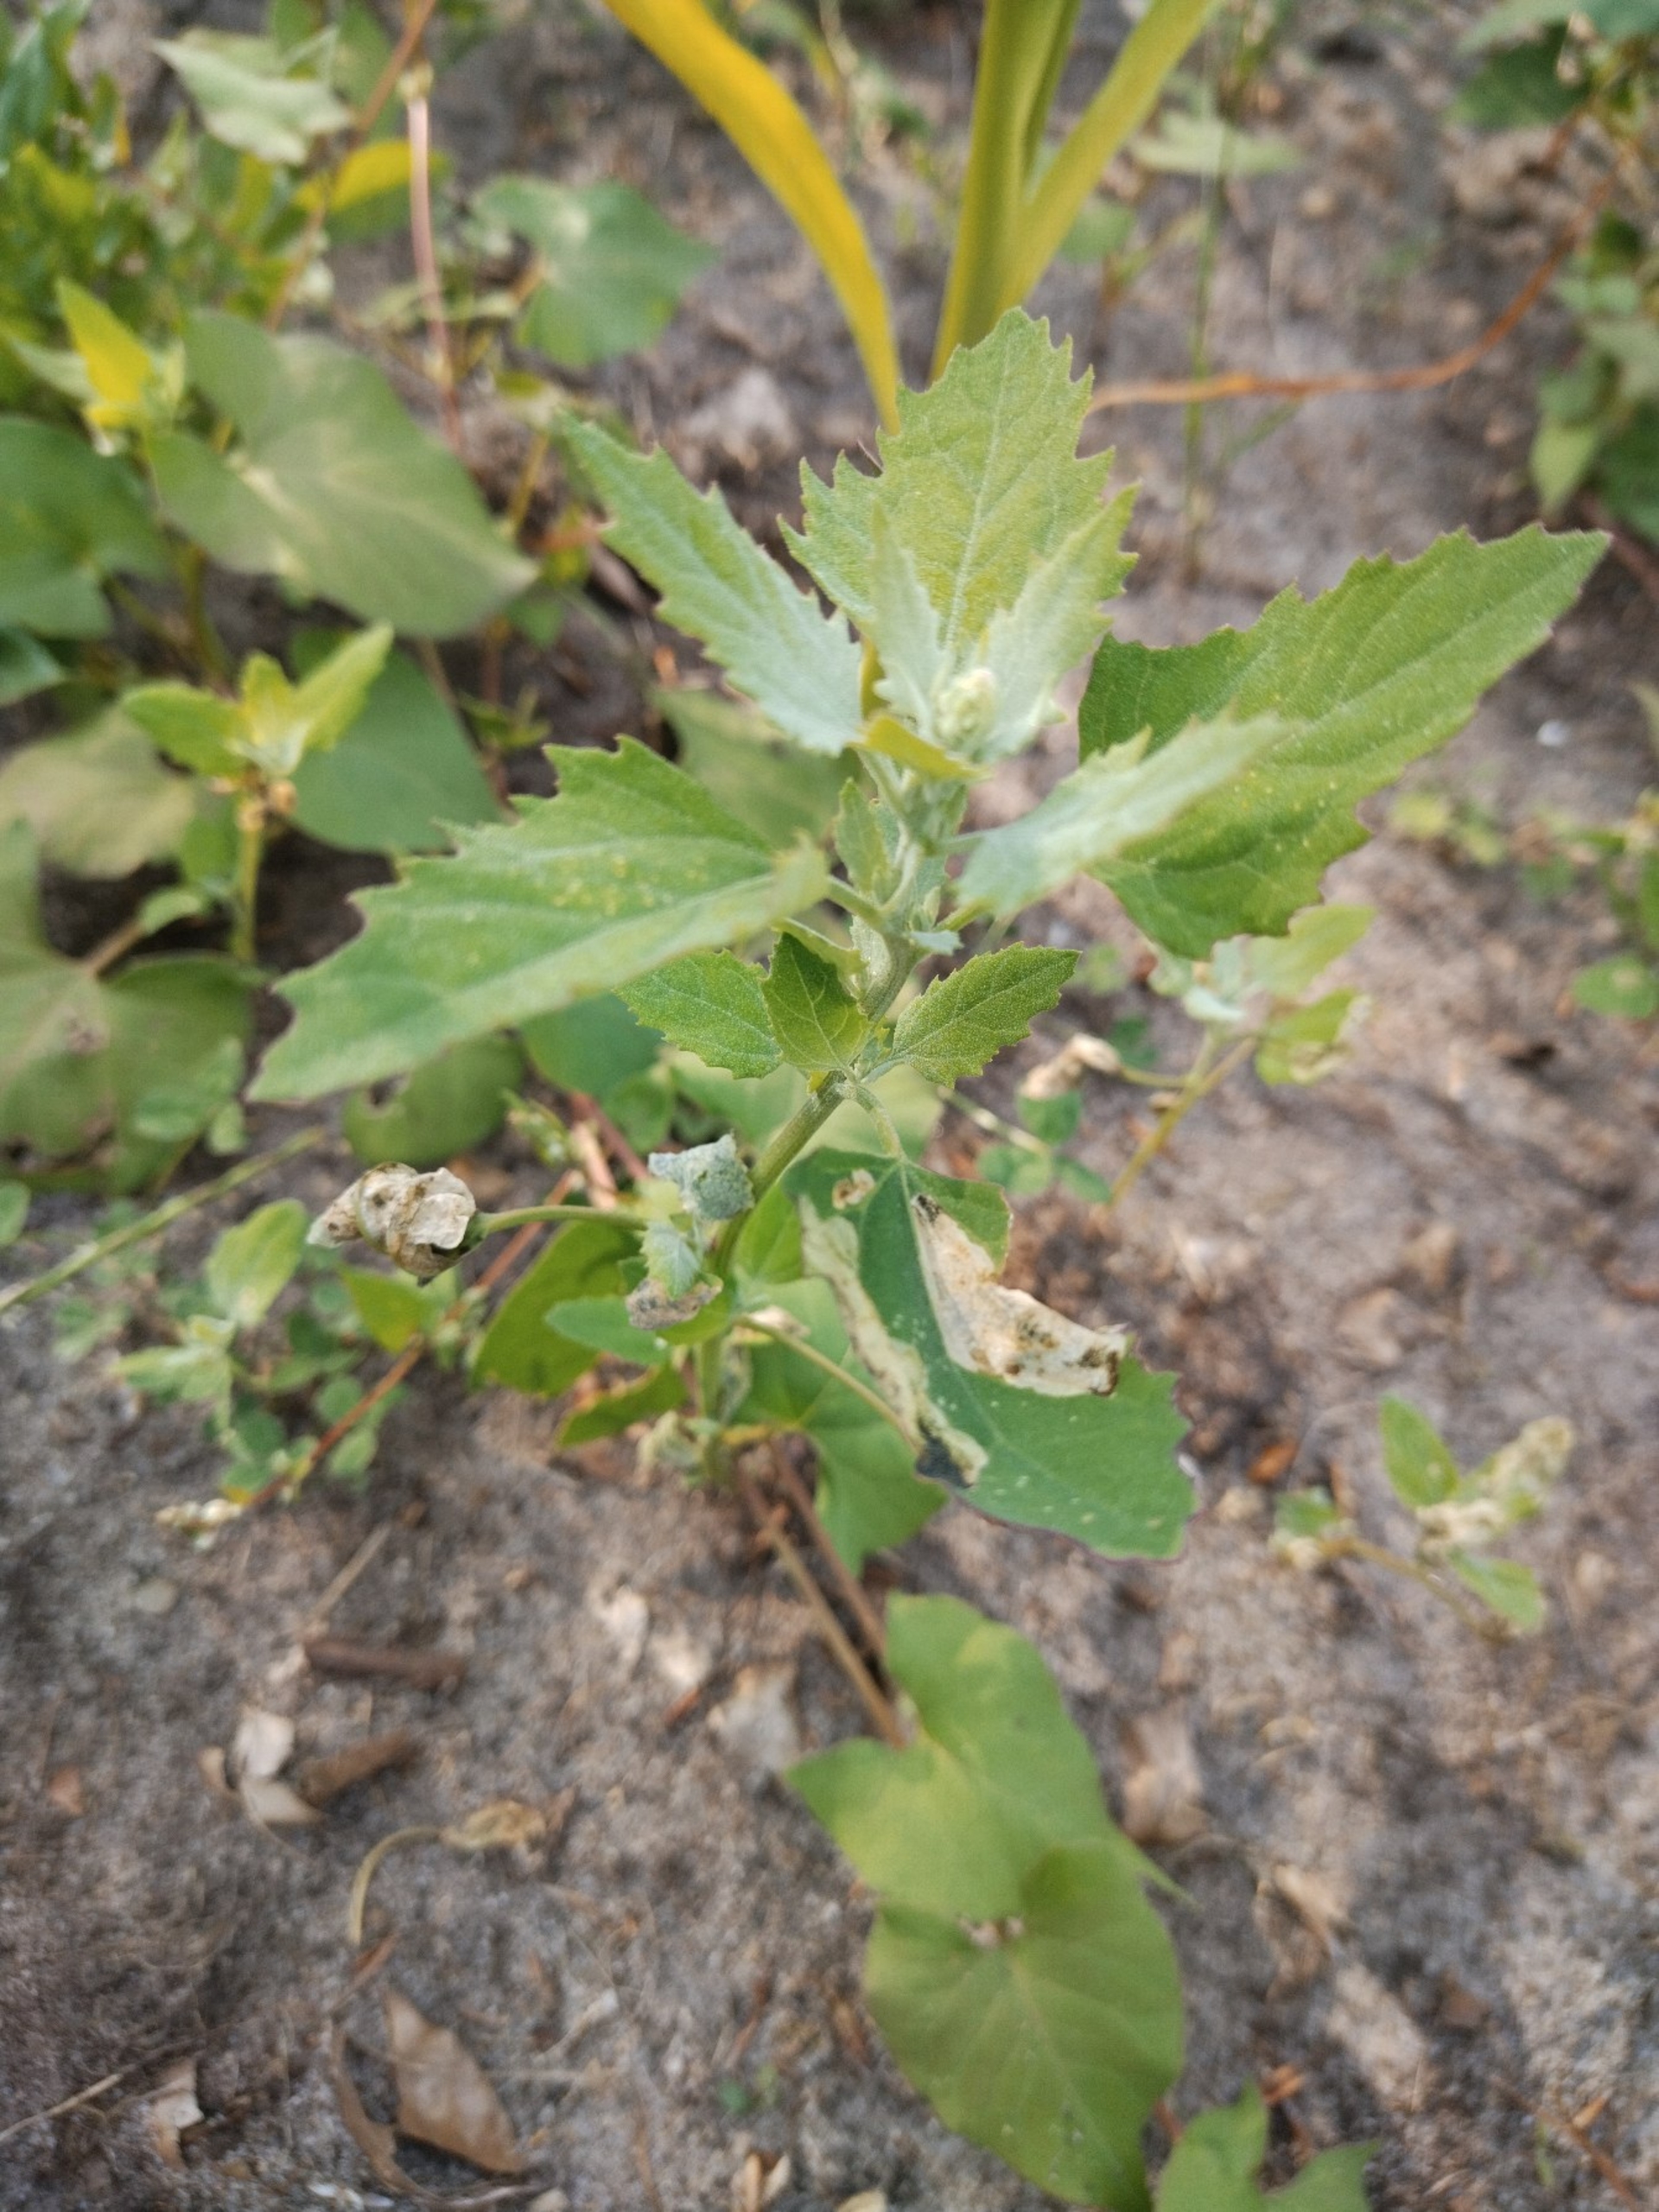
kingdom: Plantae
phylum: Tracheophyta
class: Magnoliopsida
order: Caryophyllales
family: Amaranthaceae
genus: Chenopodium
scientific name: Chenopodium album
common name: Hvidmelet gåsefod
